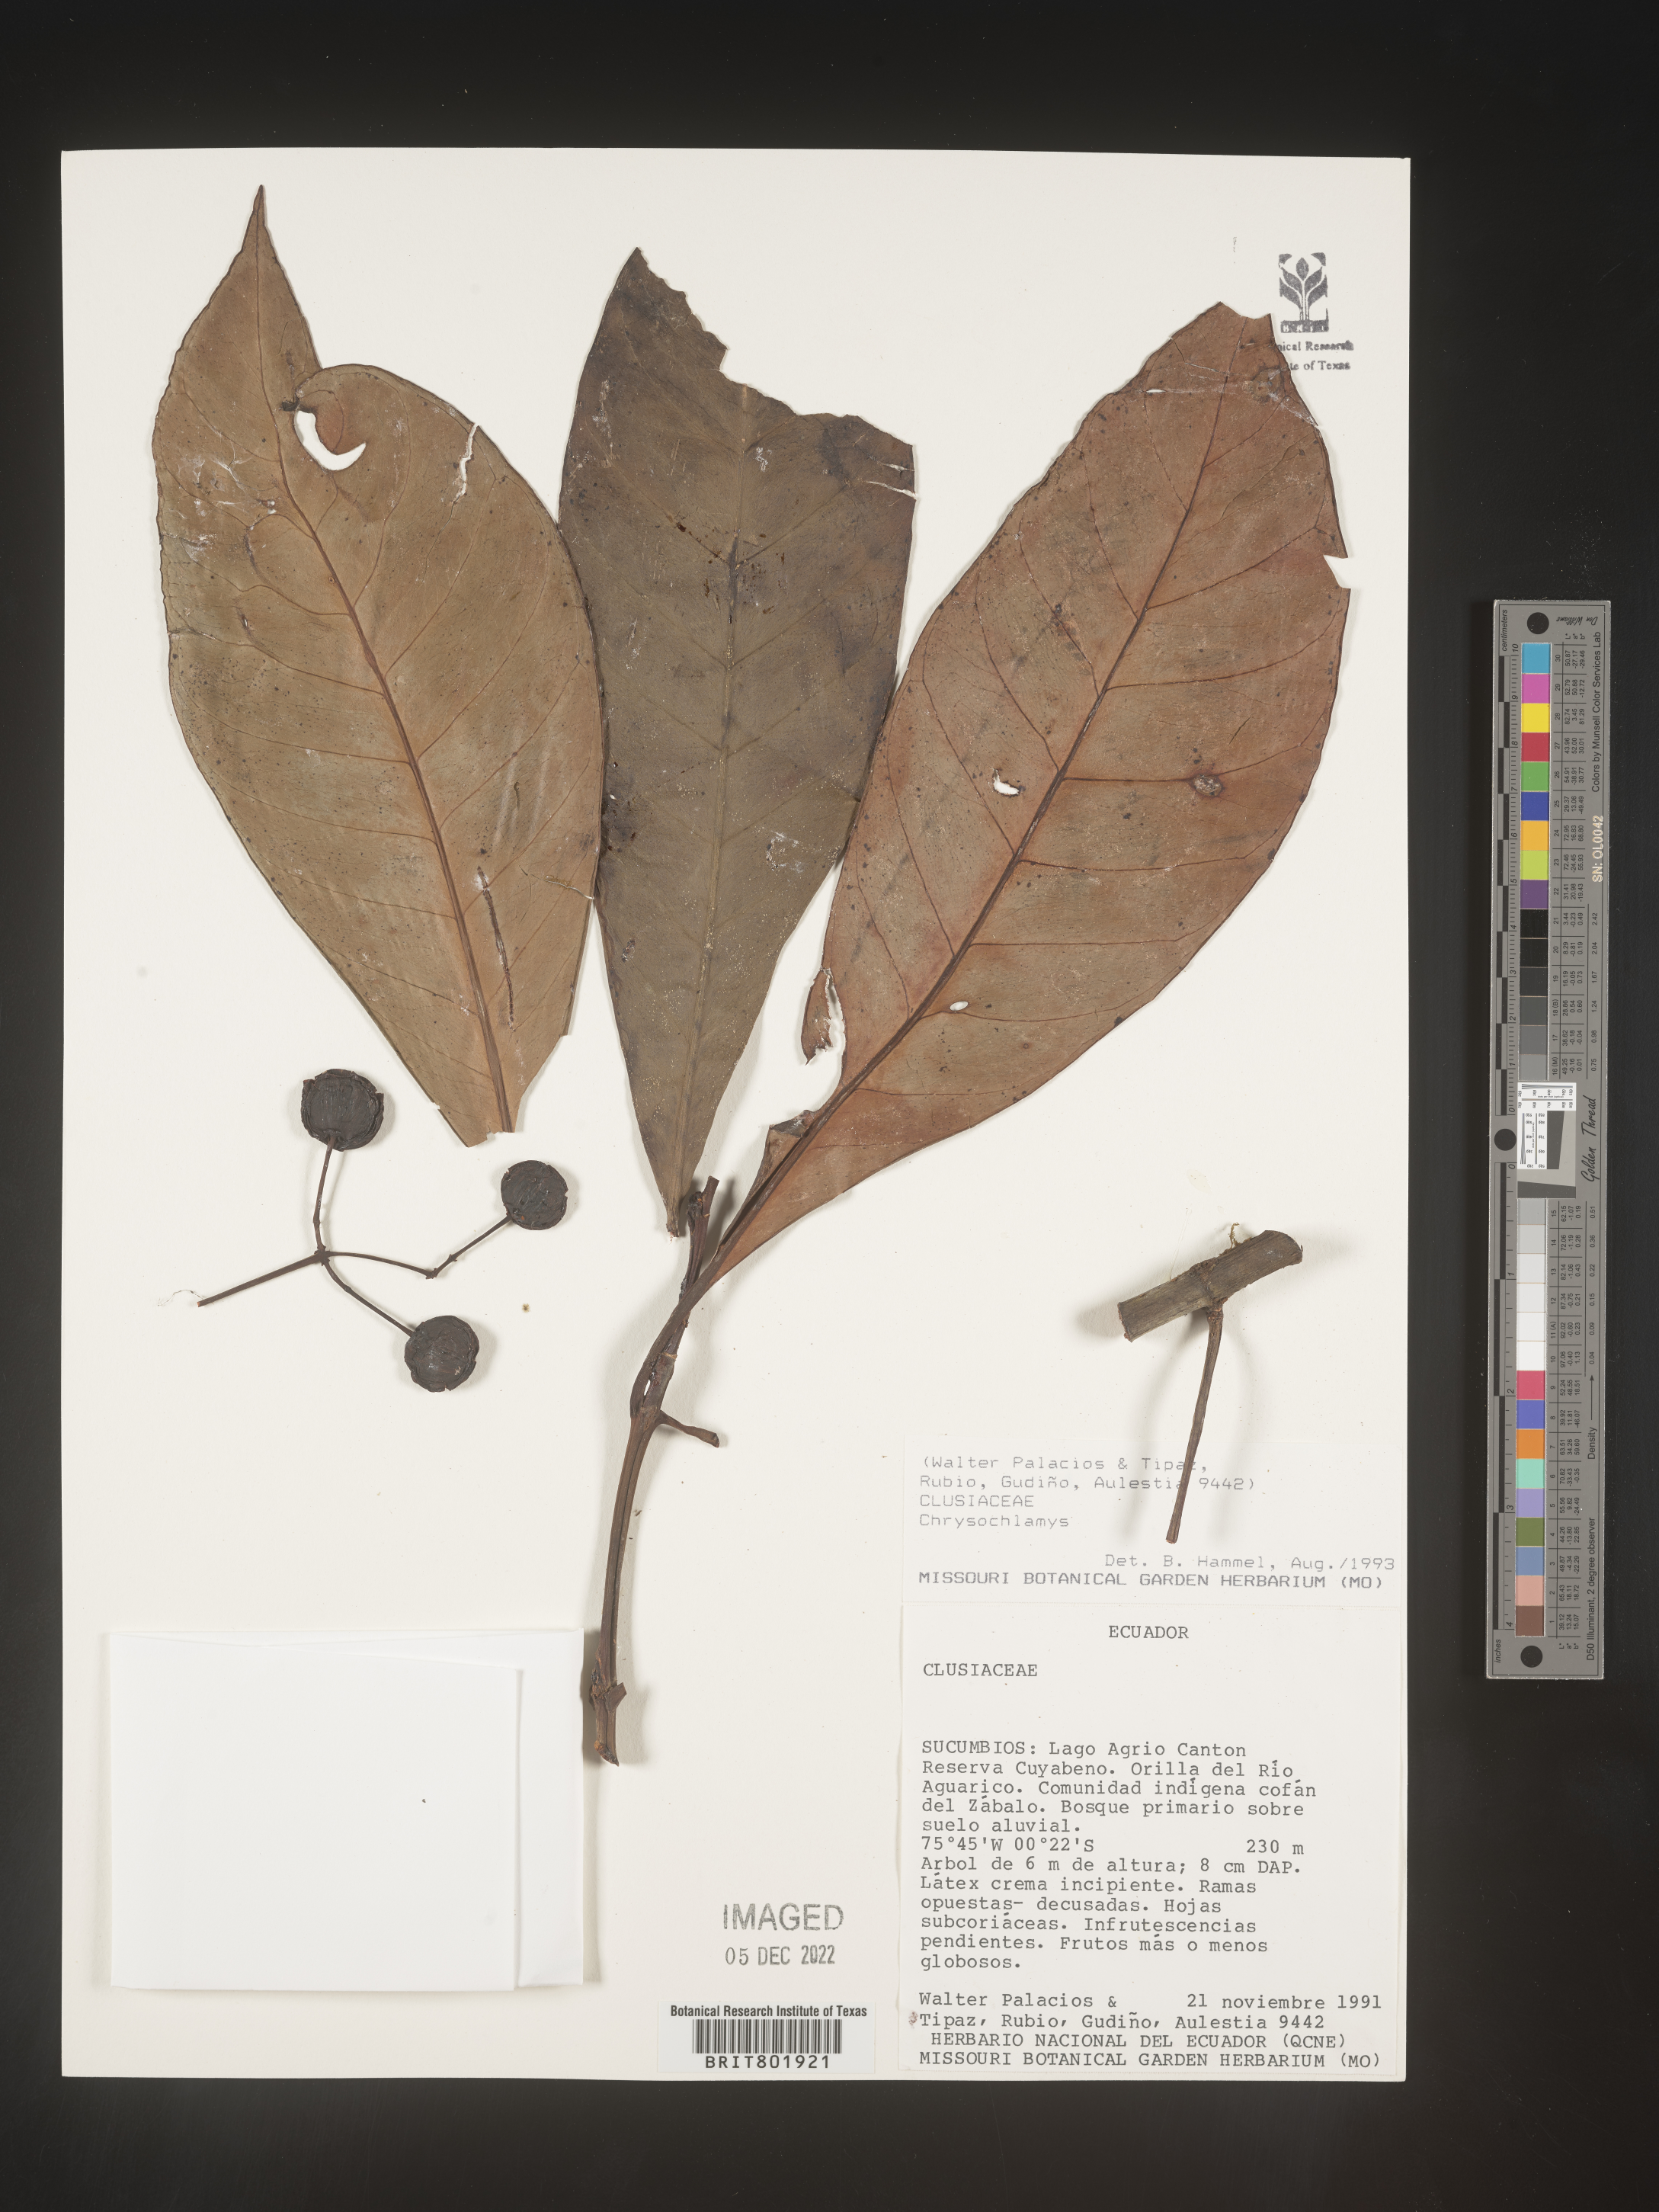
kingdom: Plantae
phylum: Tracheophyta
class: Magnoliopsida
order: Malpighiales
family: Clusiaceae
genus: Chrysochlamys
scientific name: Chrysochlamys
